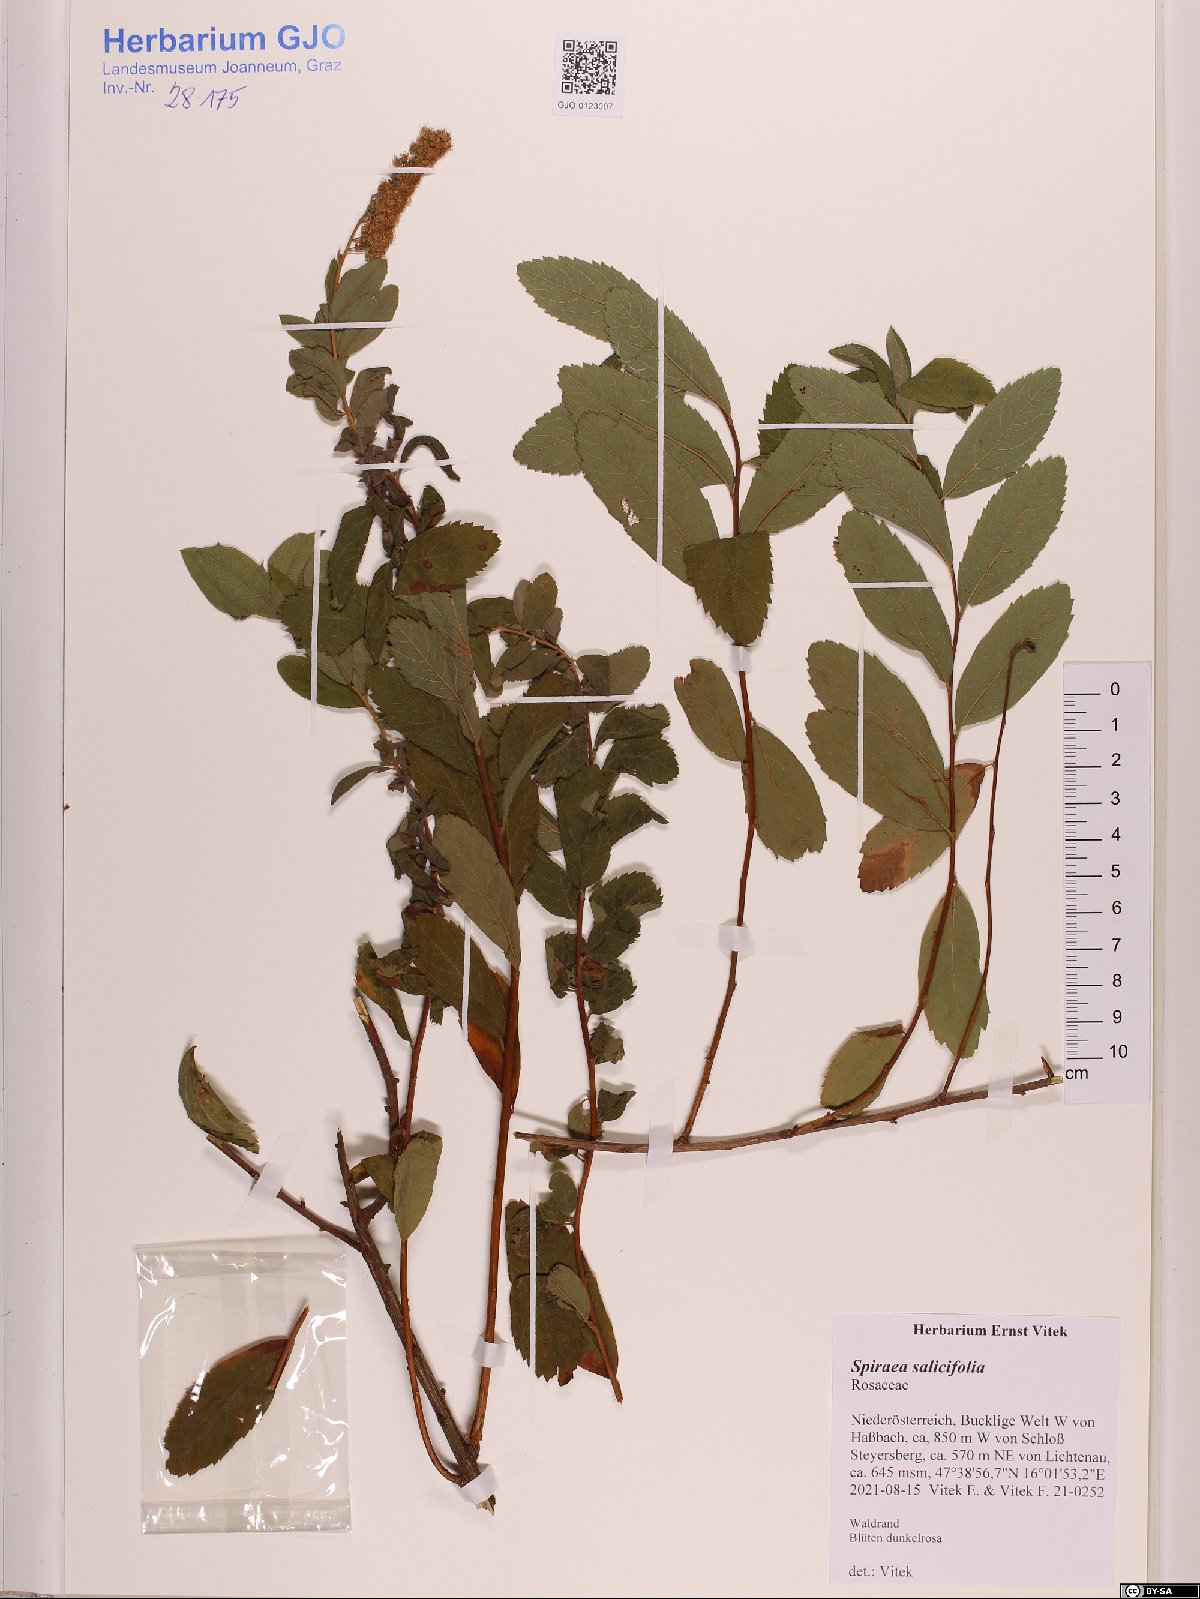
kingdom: Plantae
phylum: Tracheophyta
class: Magnoliopsida
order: Rosales
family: Rosaceae
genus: Spiraea
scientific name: Spiraea salicifolia
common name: Bridewort
